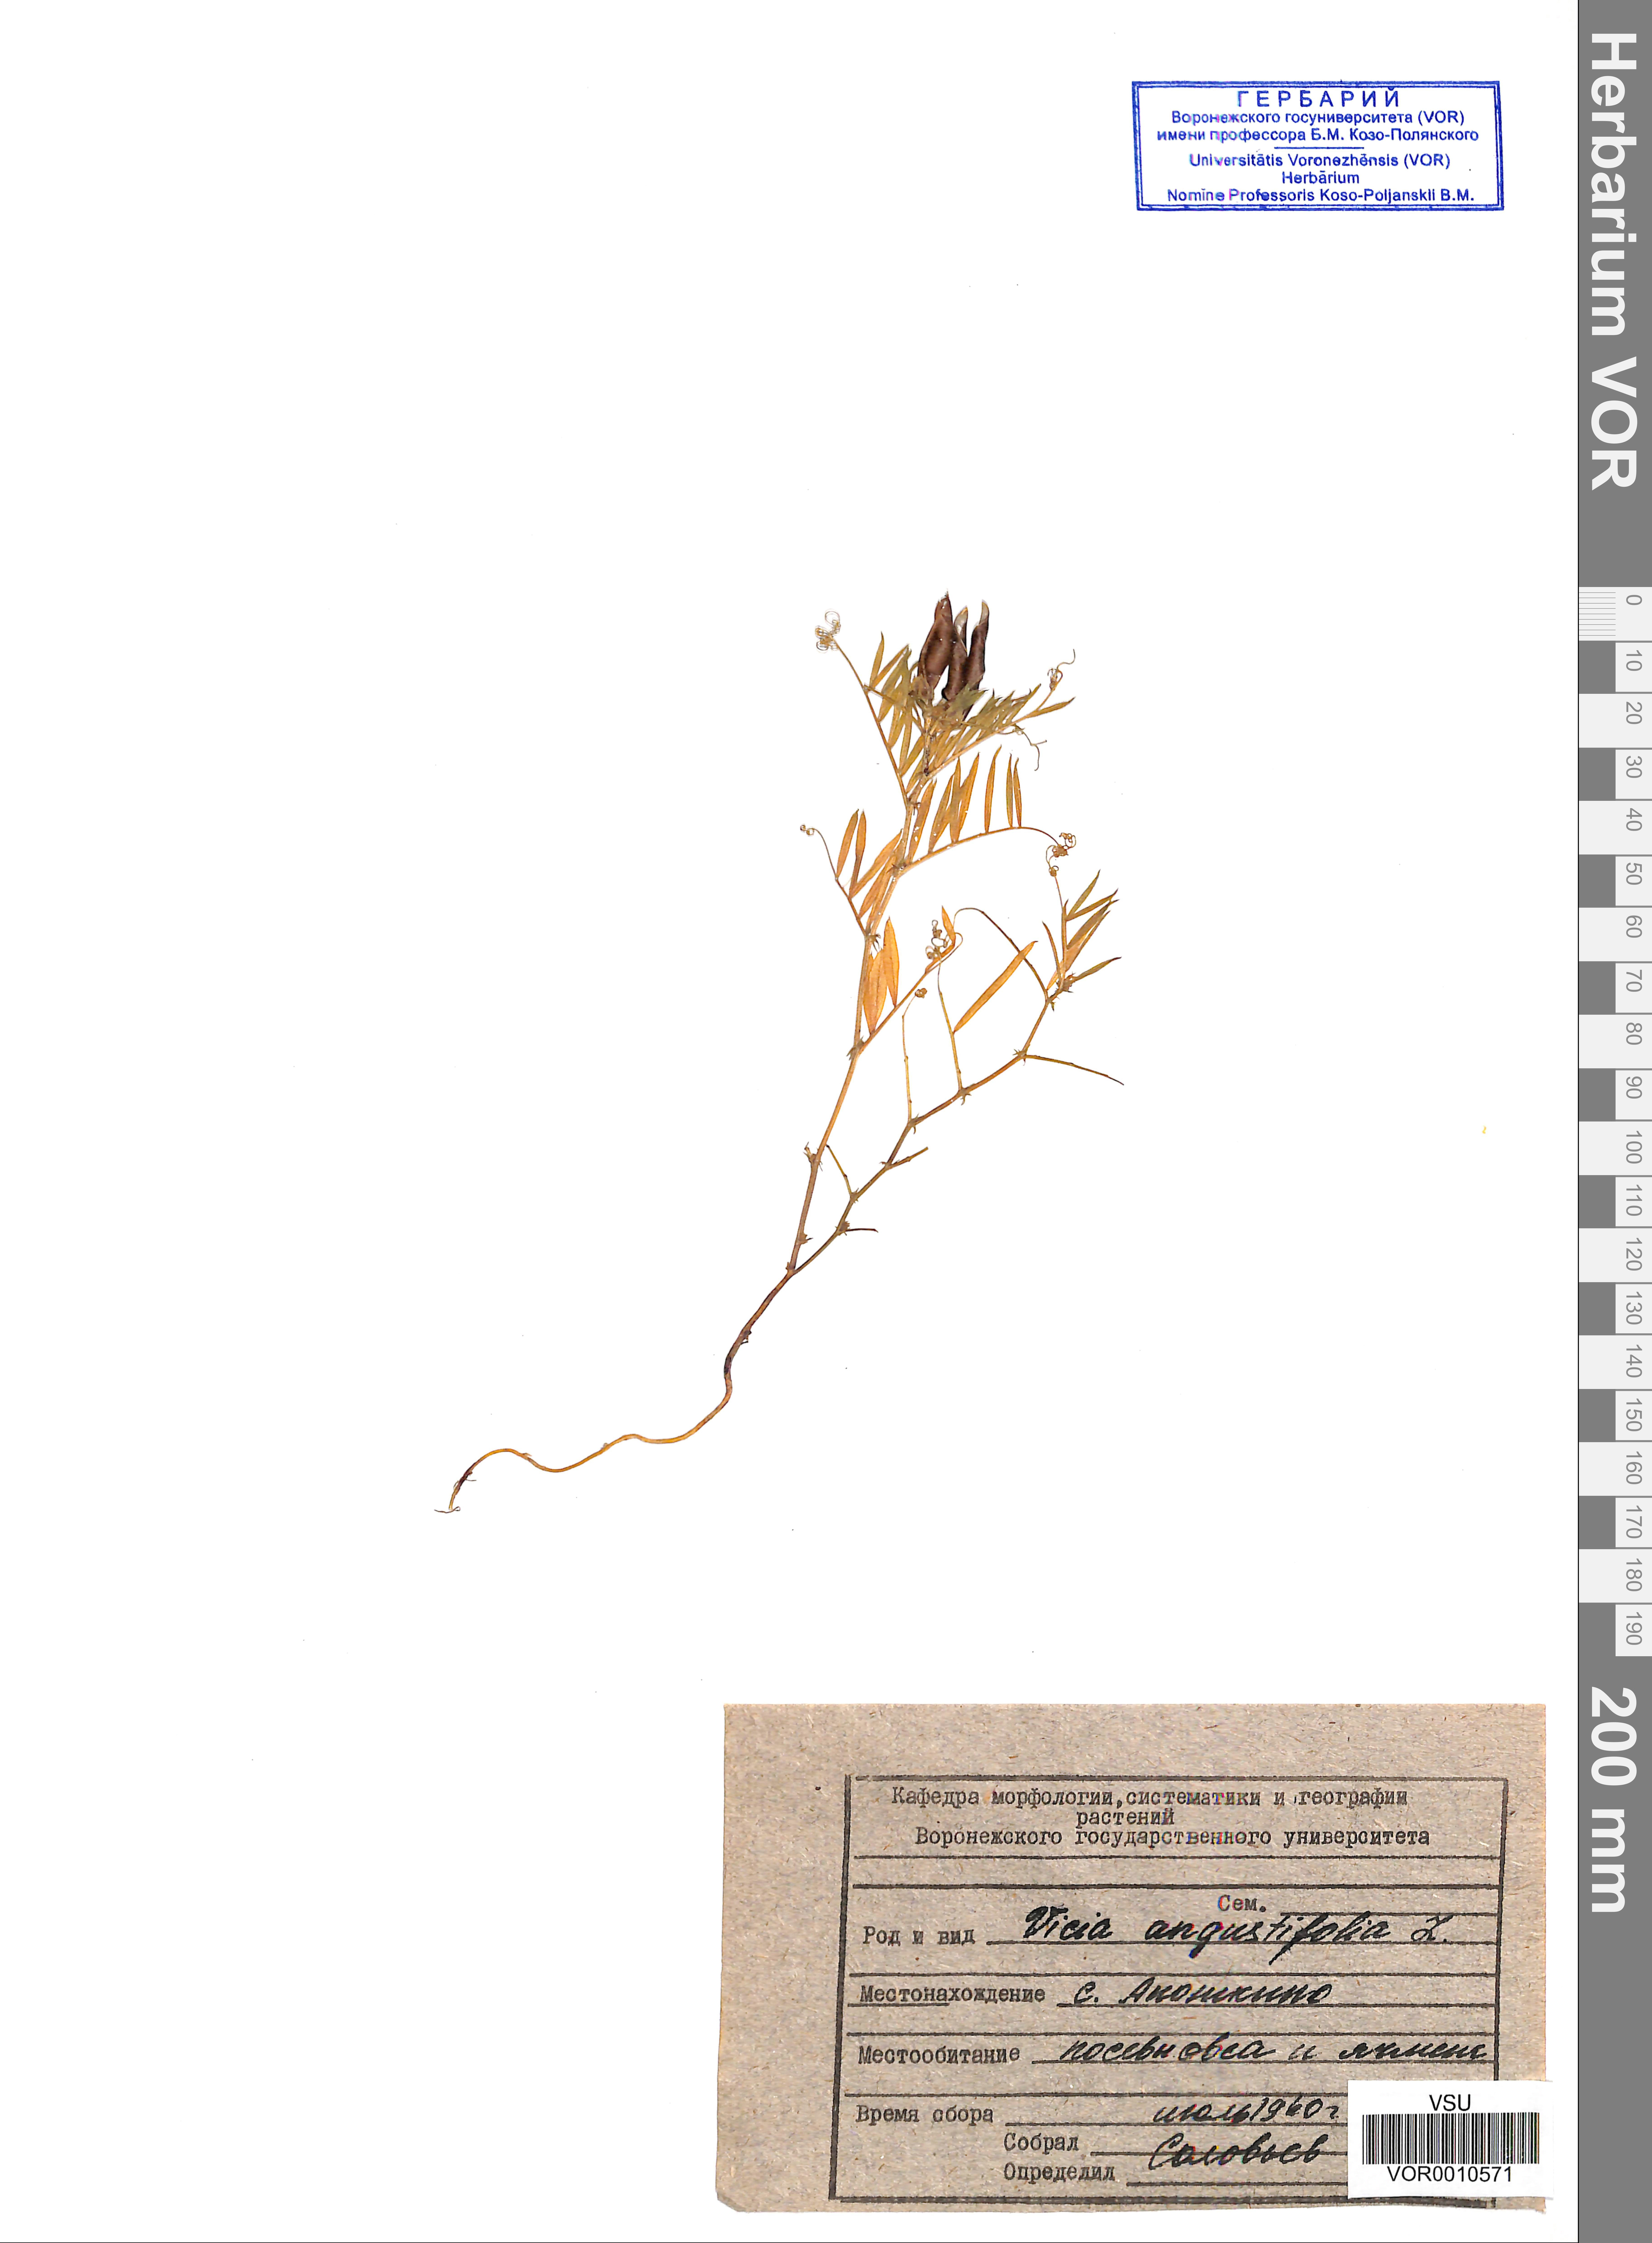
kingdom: Plantae
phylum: Tracheophyta
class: Magnoliopsida
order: Fabales
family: Fabaceae
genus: Vicia
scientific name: Vicia sativa
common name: Garden vetch
